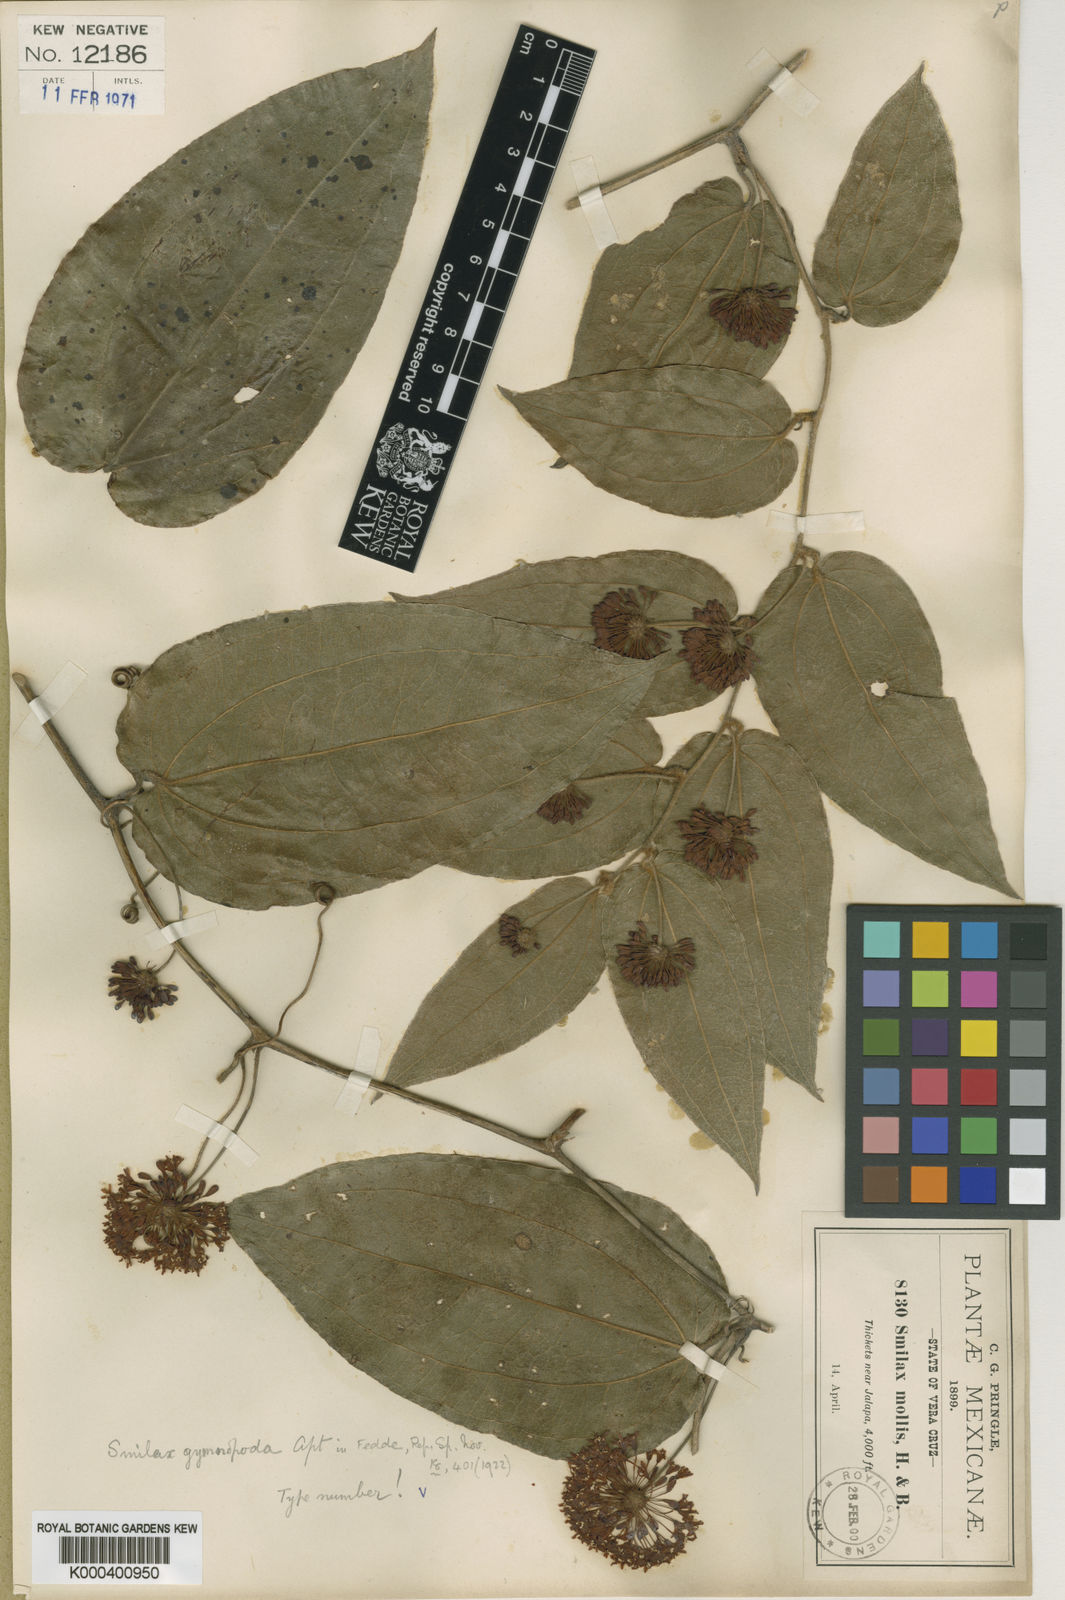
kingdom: Plantae
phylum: Tracheophyta
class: Liliopsida
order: Liliales
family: Smilacaceae
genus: Smilax
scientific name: Smilax mollis
